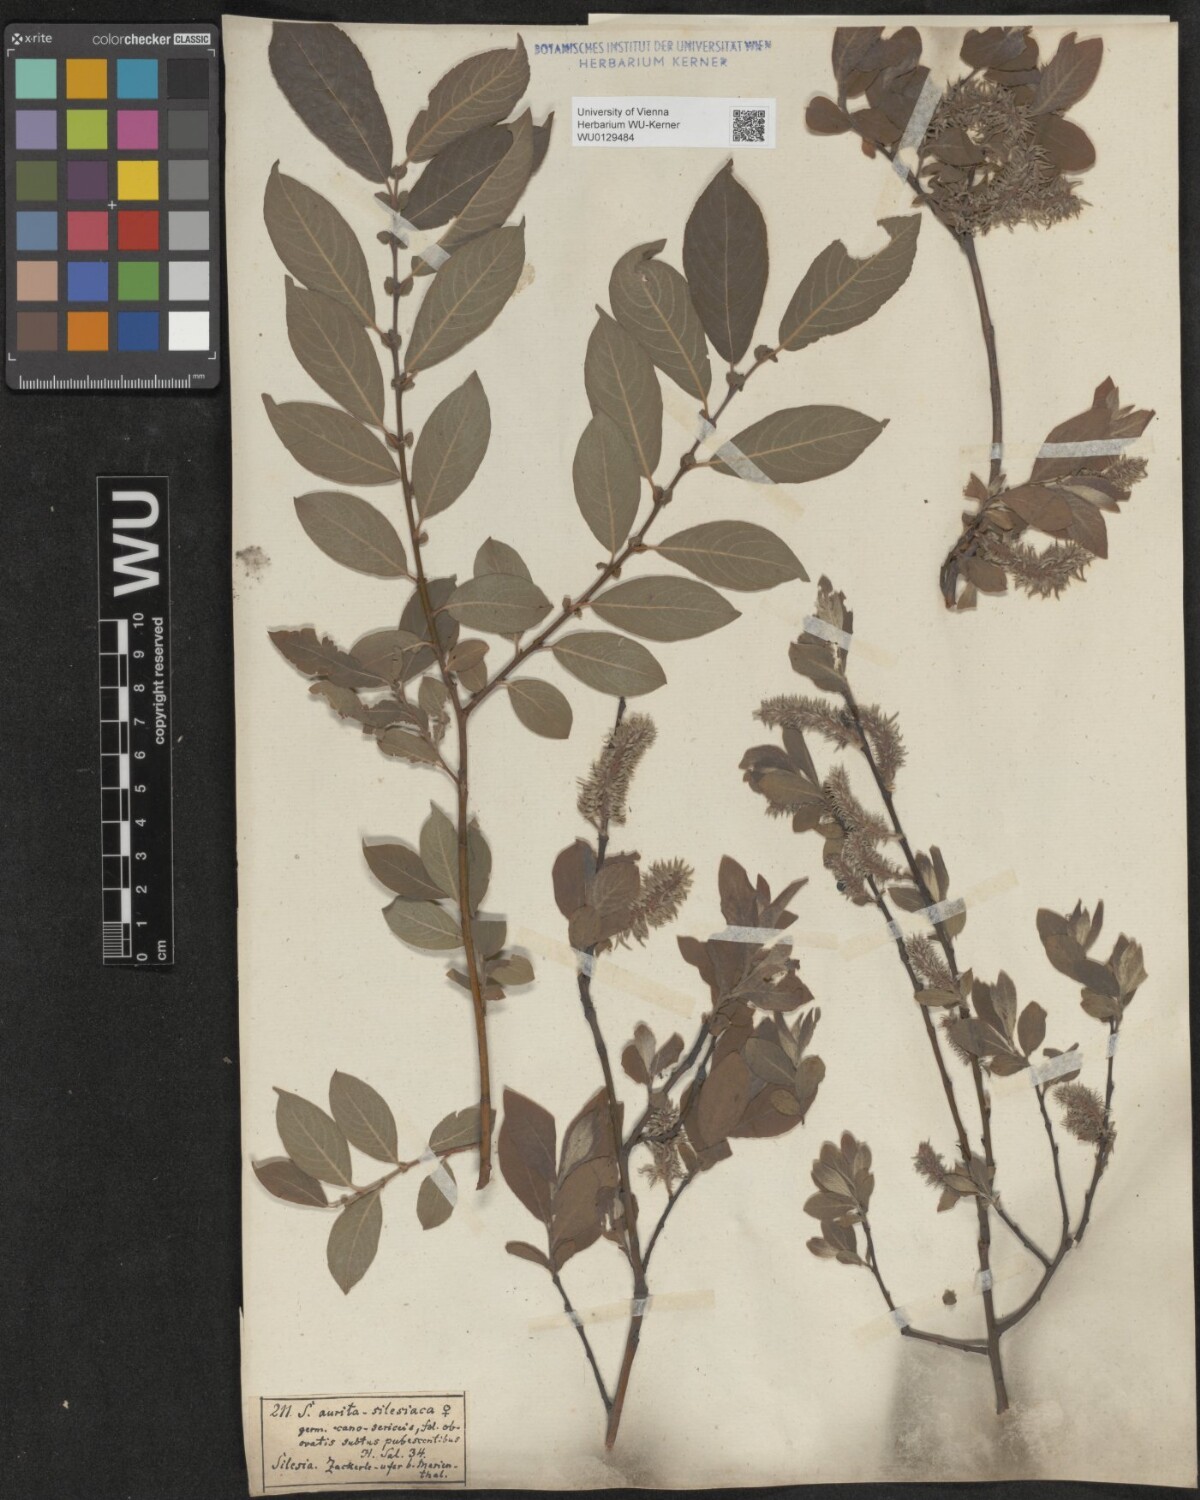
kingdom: Plantae
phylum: Tracheophyta
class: Magnoliopsida
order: Malpighiales
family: Salicaceae
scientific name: Salicaceae
